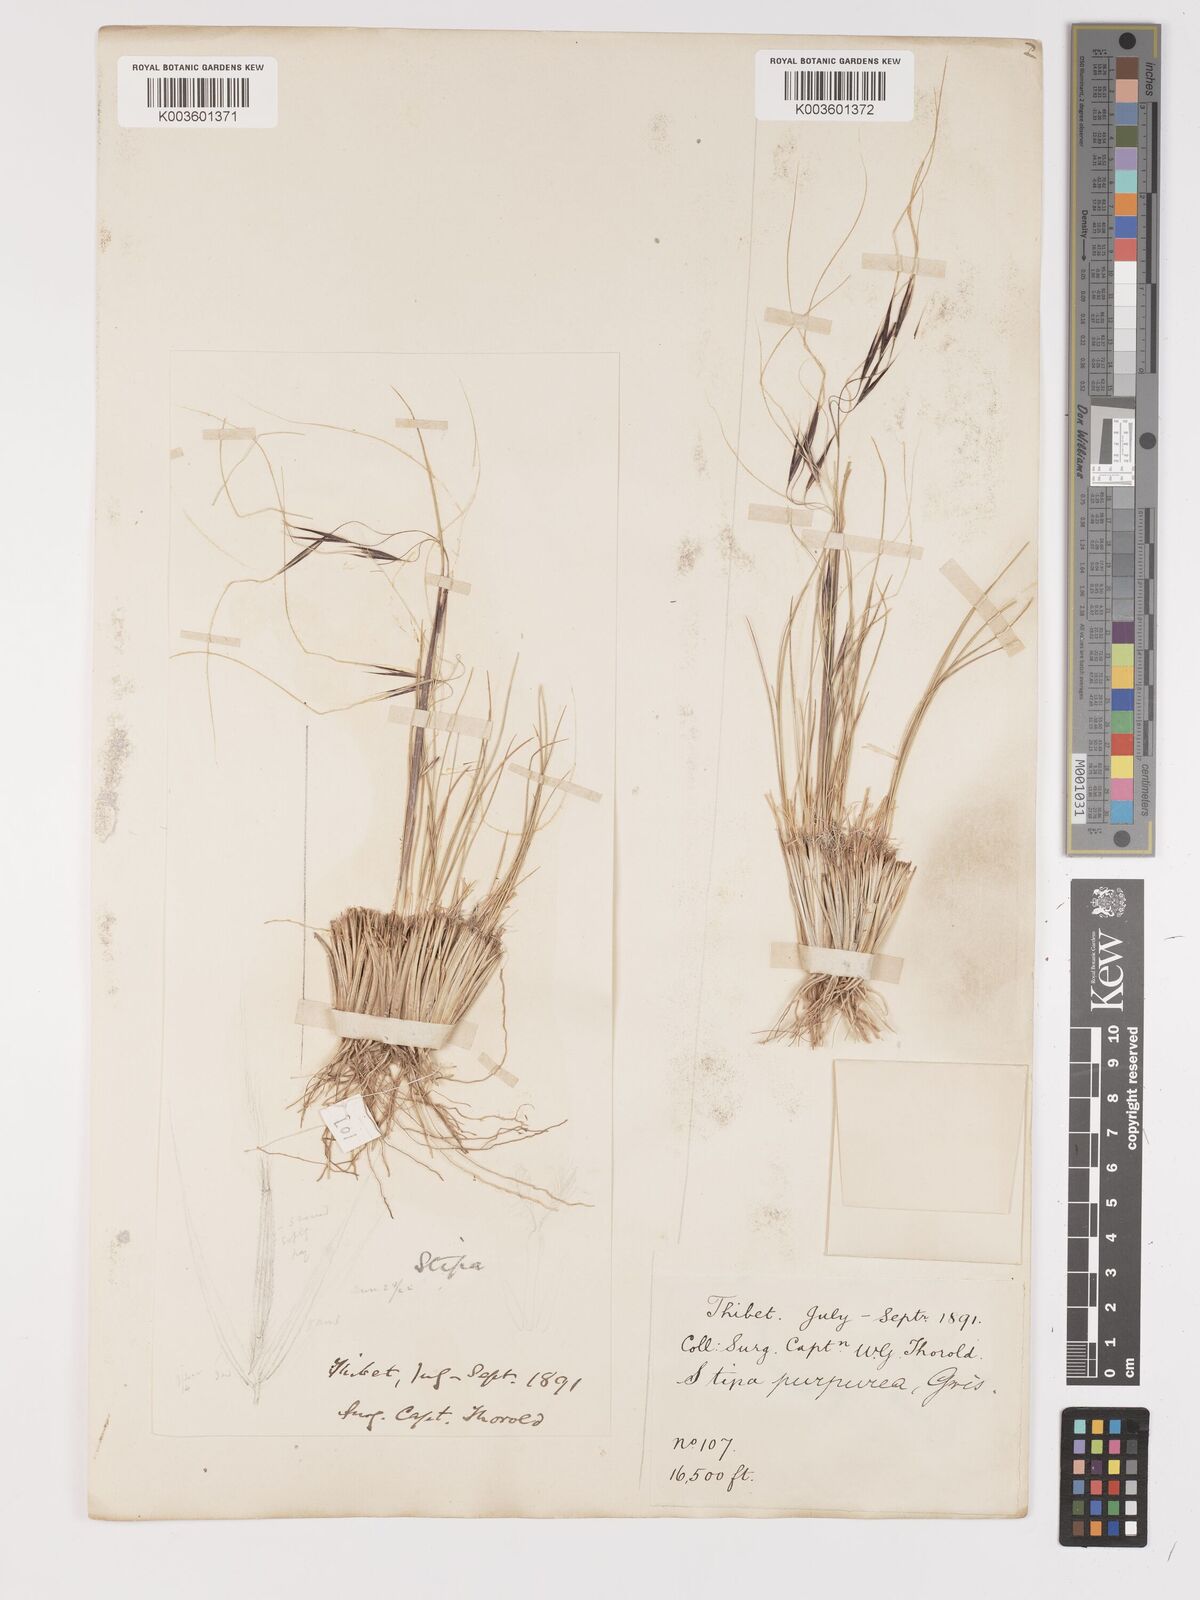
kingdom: Plantae
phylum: Tracheophyta
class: Liliopsida
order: Poales
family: Poaceae
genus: Stipa
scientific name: Stipa purpurea
